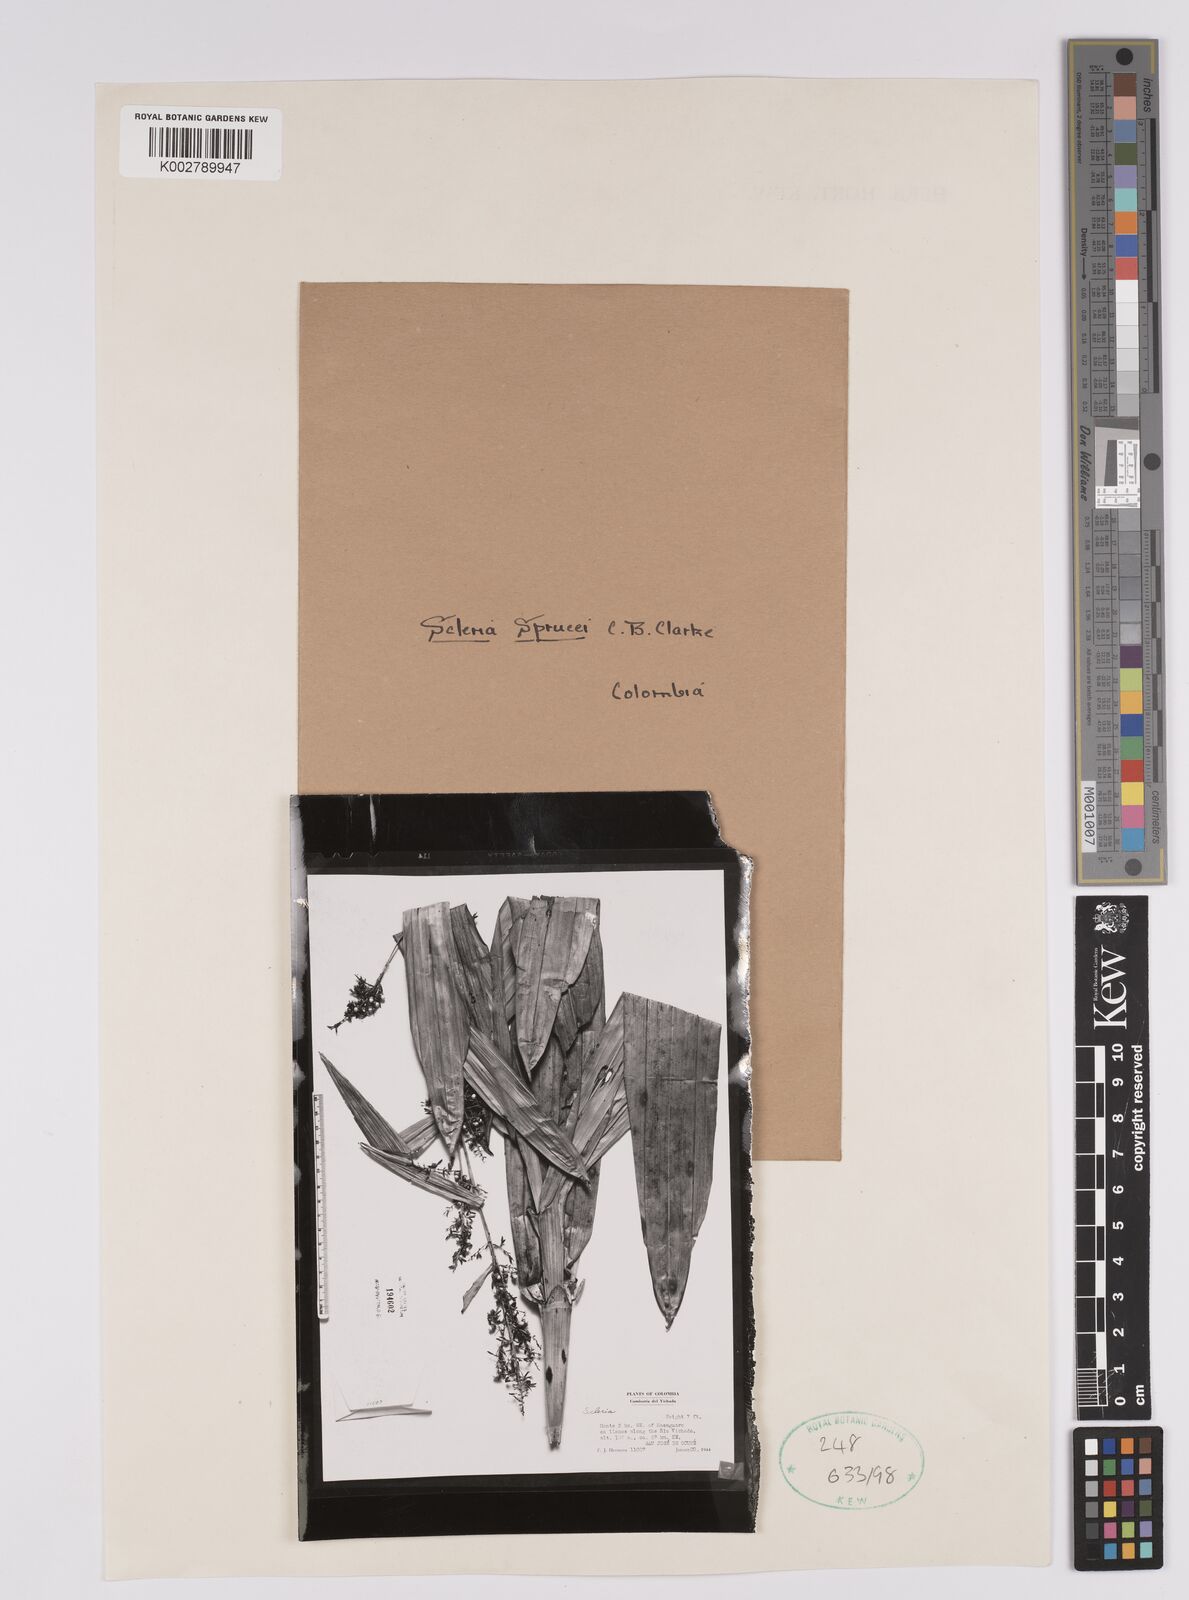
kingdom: Plantae
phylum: Tracheophyta
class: Liliopsida
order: Poales
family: Cyperaceae
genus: Scleria
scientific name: Scleria sprucei
